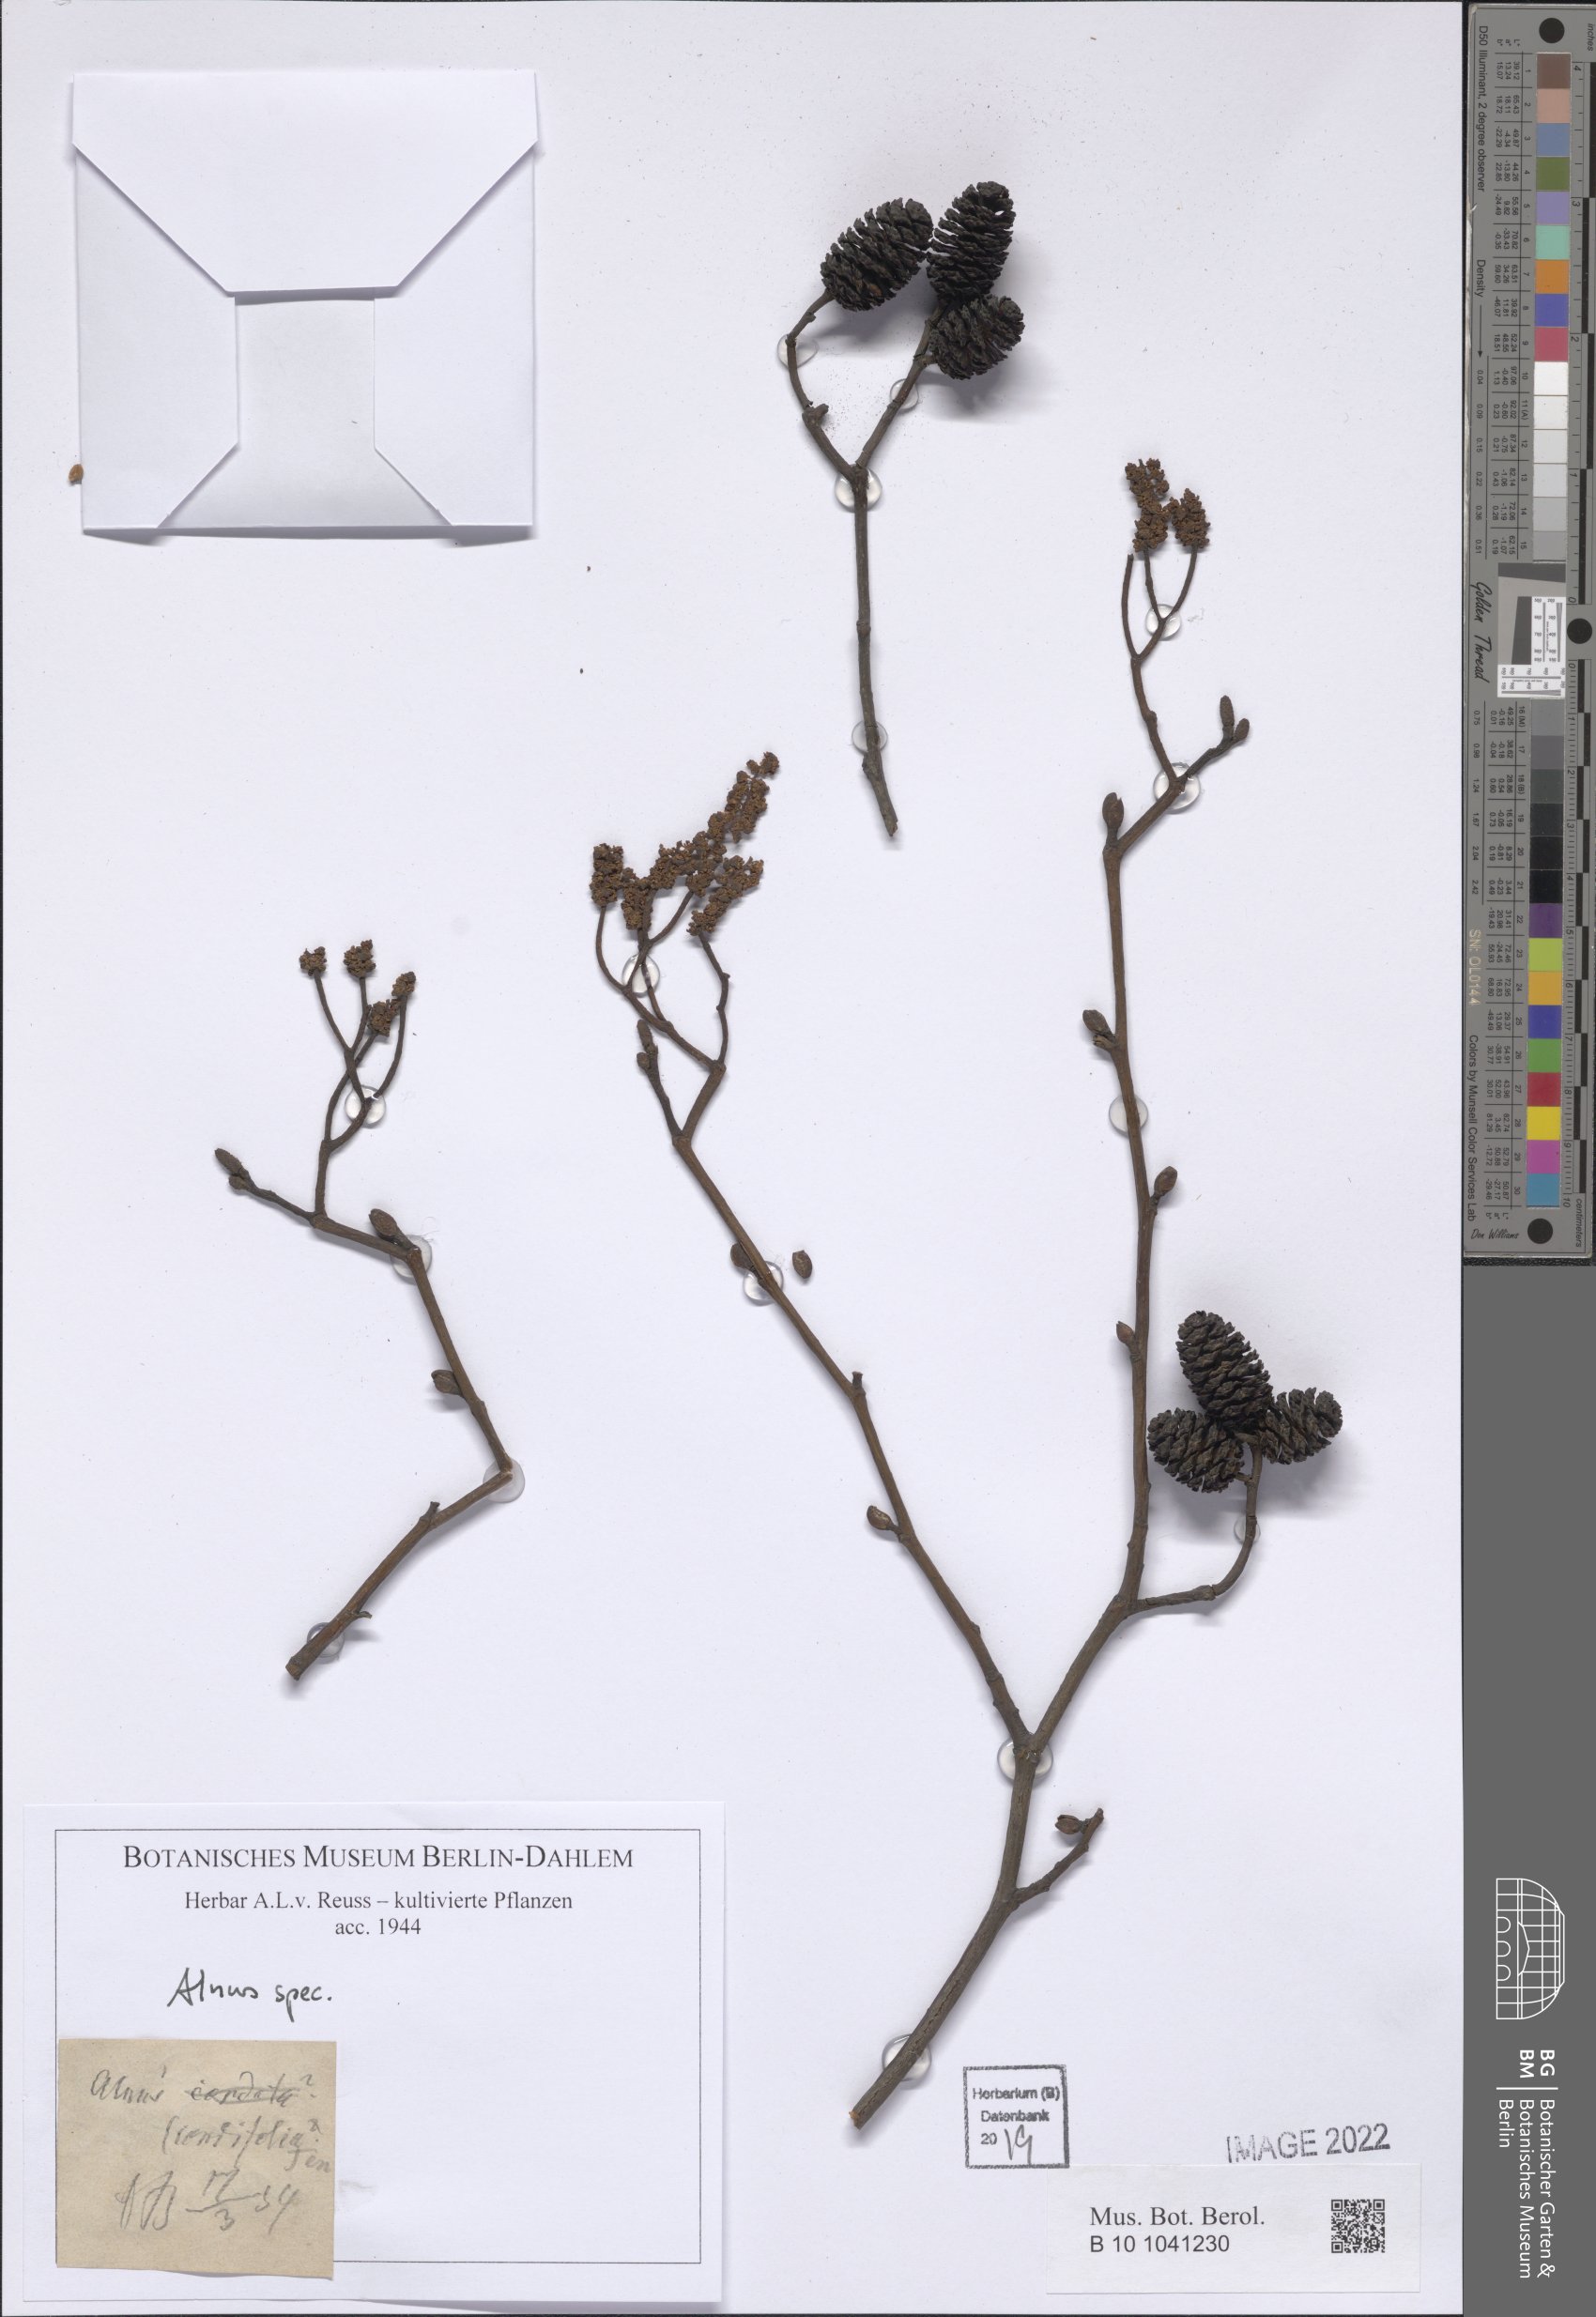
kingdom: Plantae
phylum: Tracheophyta
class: Magnoliopsida
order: Fagales
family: Betulaceae
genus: Alnus
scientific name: Alnus
